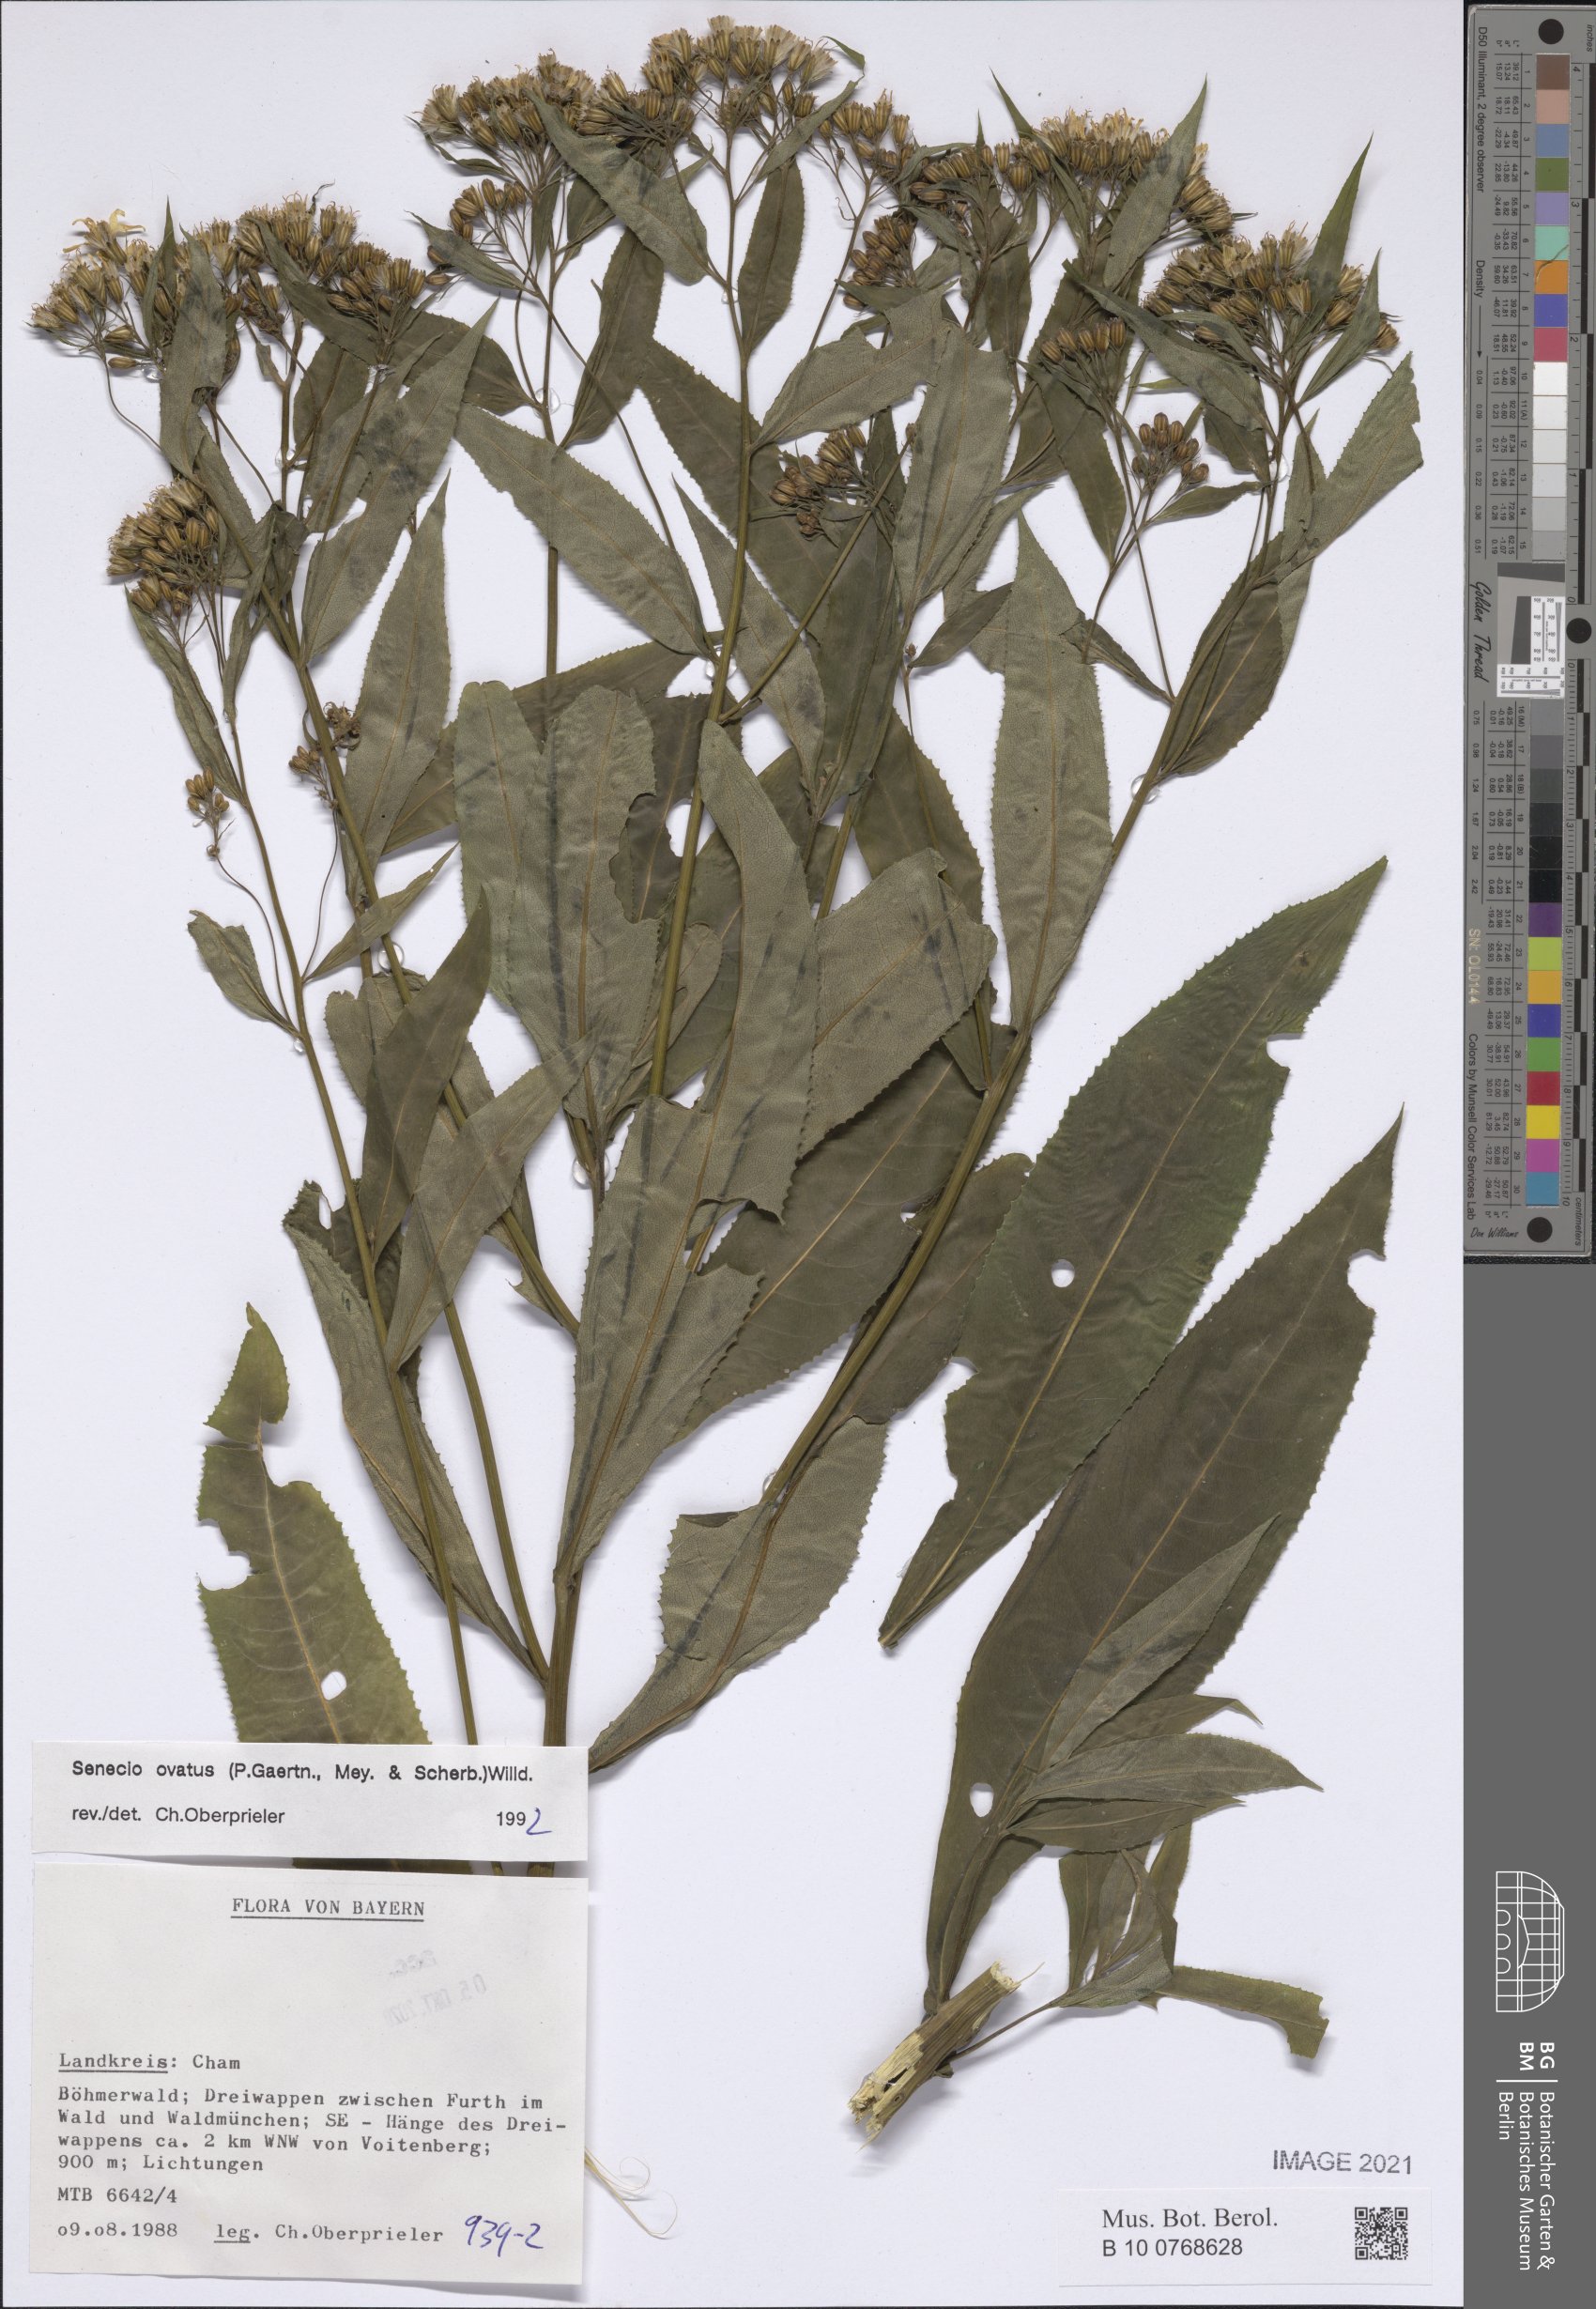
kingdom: Plantae
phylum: Tracheophyta
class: Magnoliopsida
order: Asterales
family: Asteraceae
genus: Senecio
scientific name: Senecio ovatus
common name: Wood ragwort
